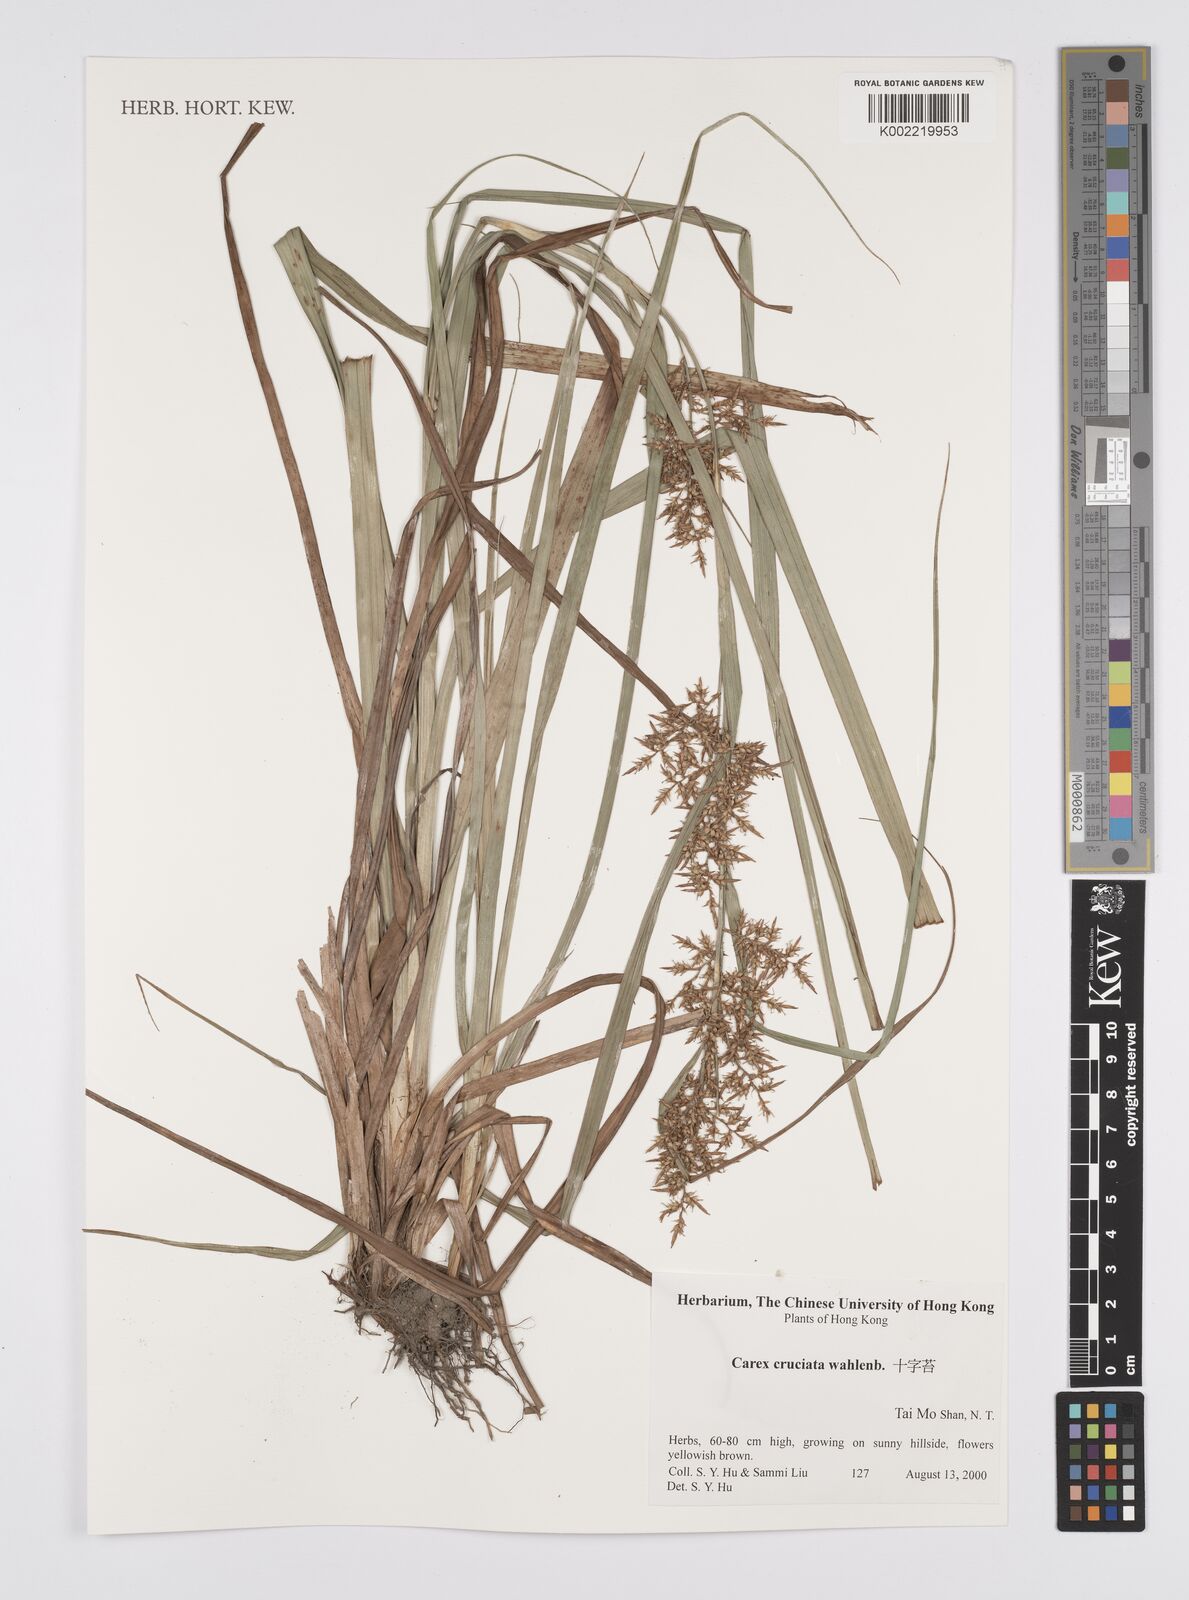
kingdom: Plantae
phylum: Tracheophyta
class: Liliopsida
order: Poales
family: Cyperaceae
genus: Carex
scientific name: Carex cruciata
